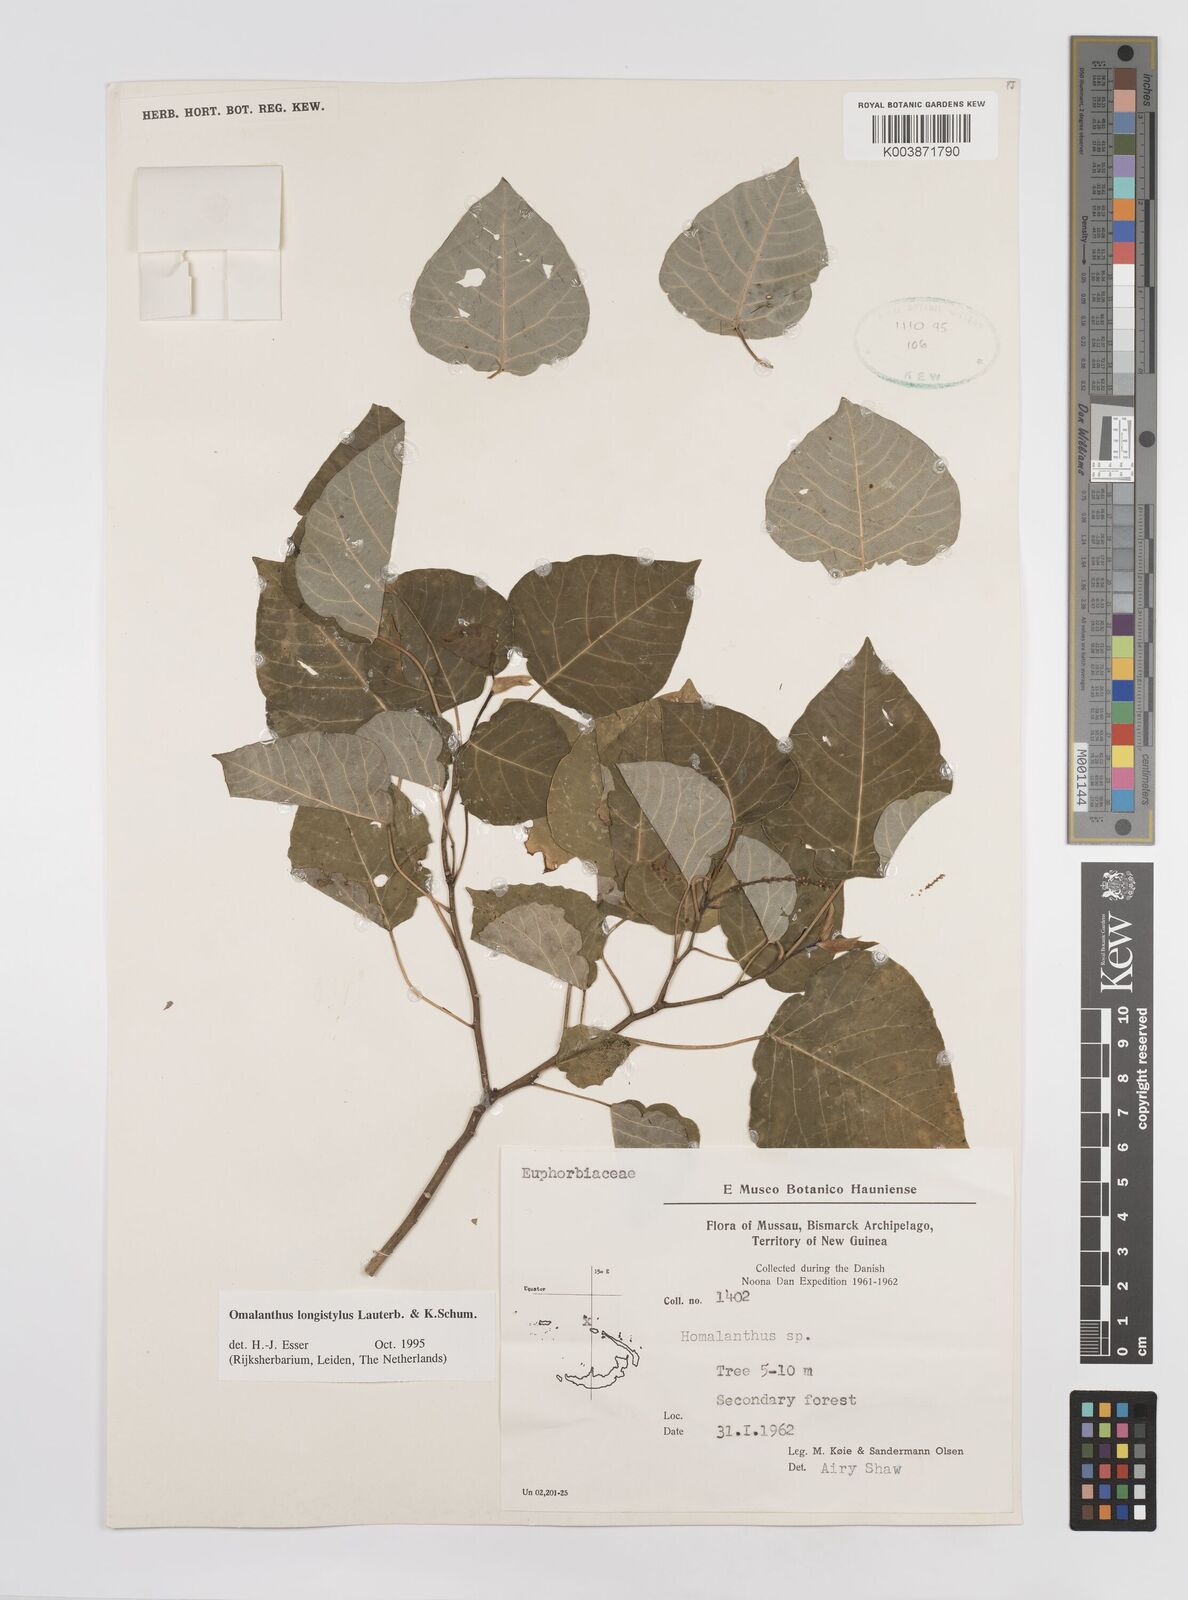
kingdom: Plantae
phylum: Tracheophyta
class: Magnoliopsida
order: Malpighiales
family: Euphorbiaceae
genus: Homalanthus
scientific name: Homalanthus longistylus
